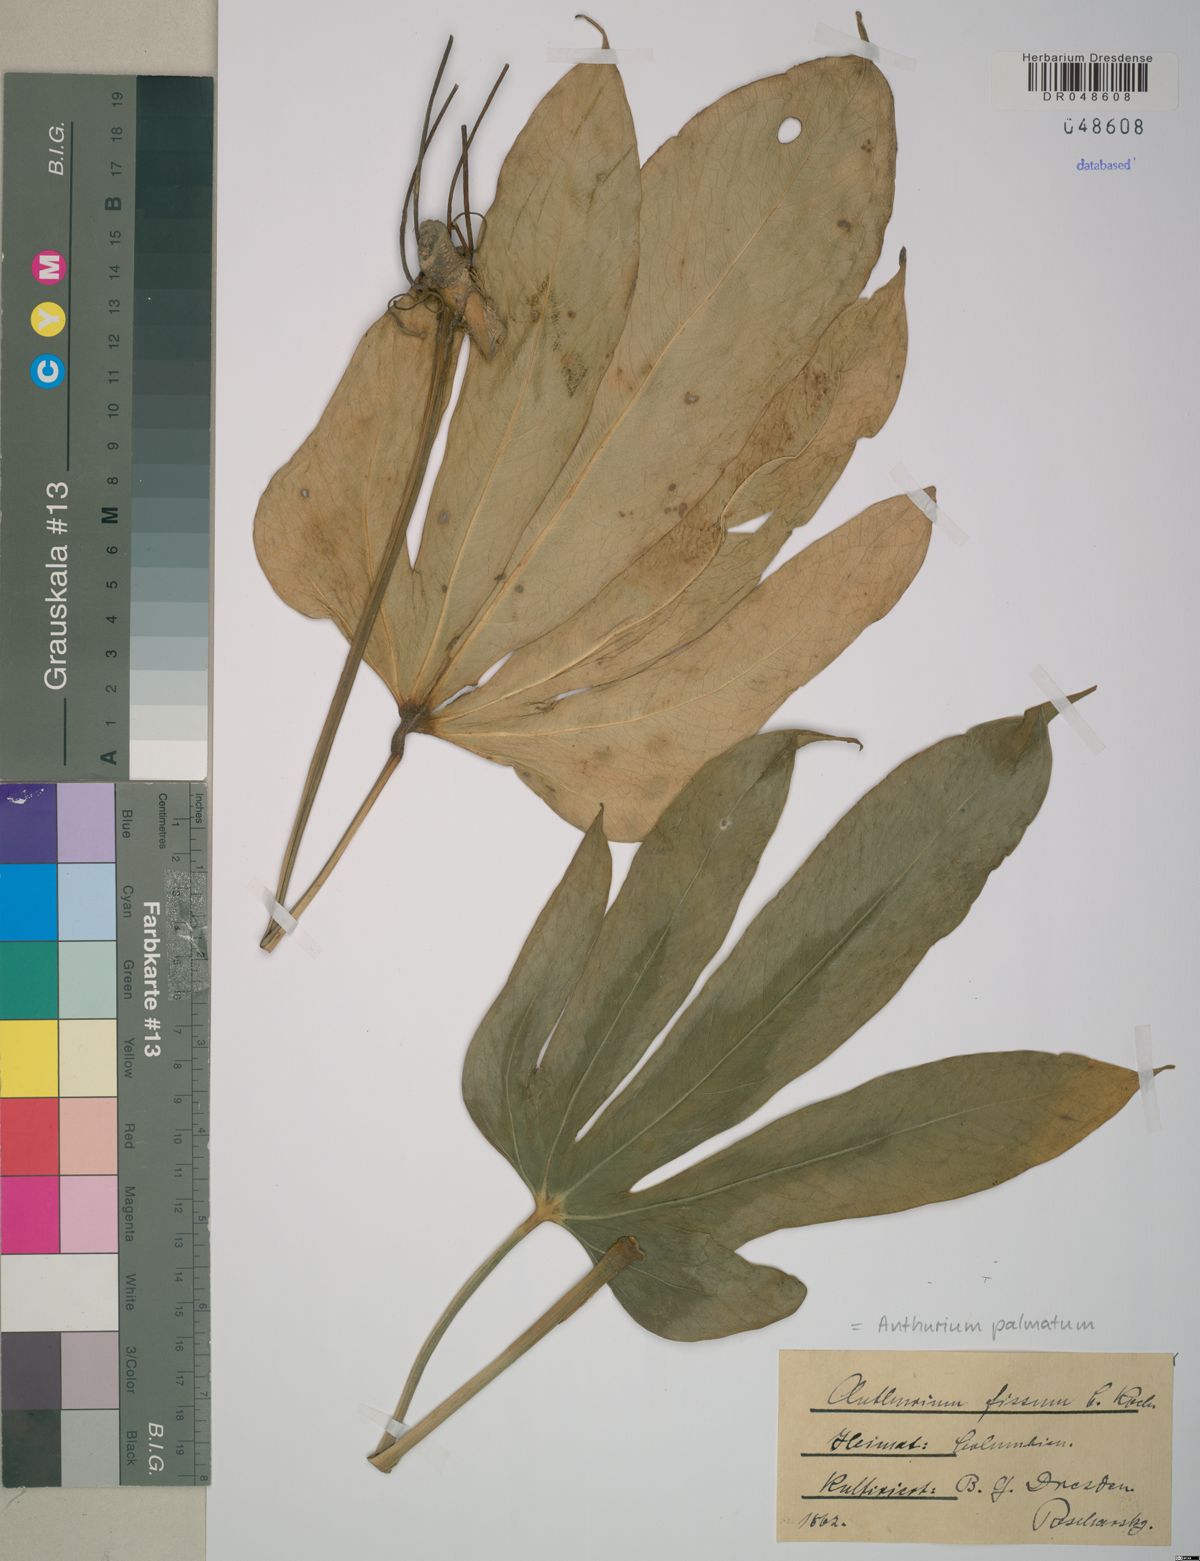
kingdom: Plantae
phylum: Tracheophyta
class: Liliopsida
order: Alismatales
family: Araceae
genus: Anthurium
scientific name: Anthurium palmatum
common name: Mibi
